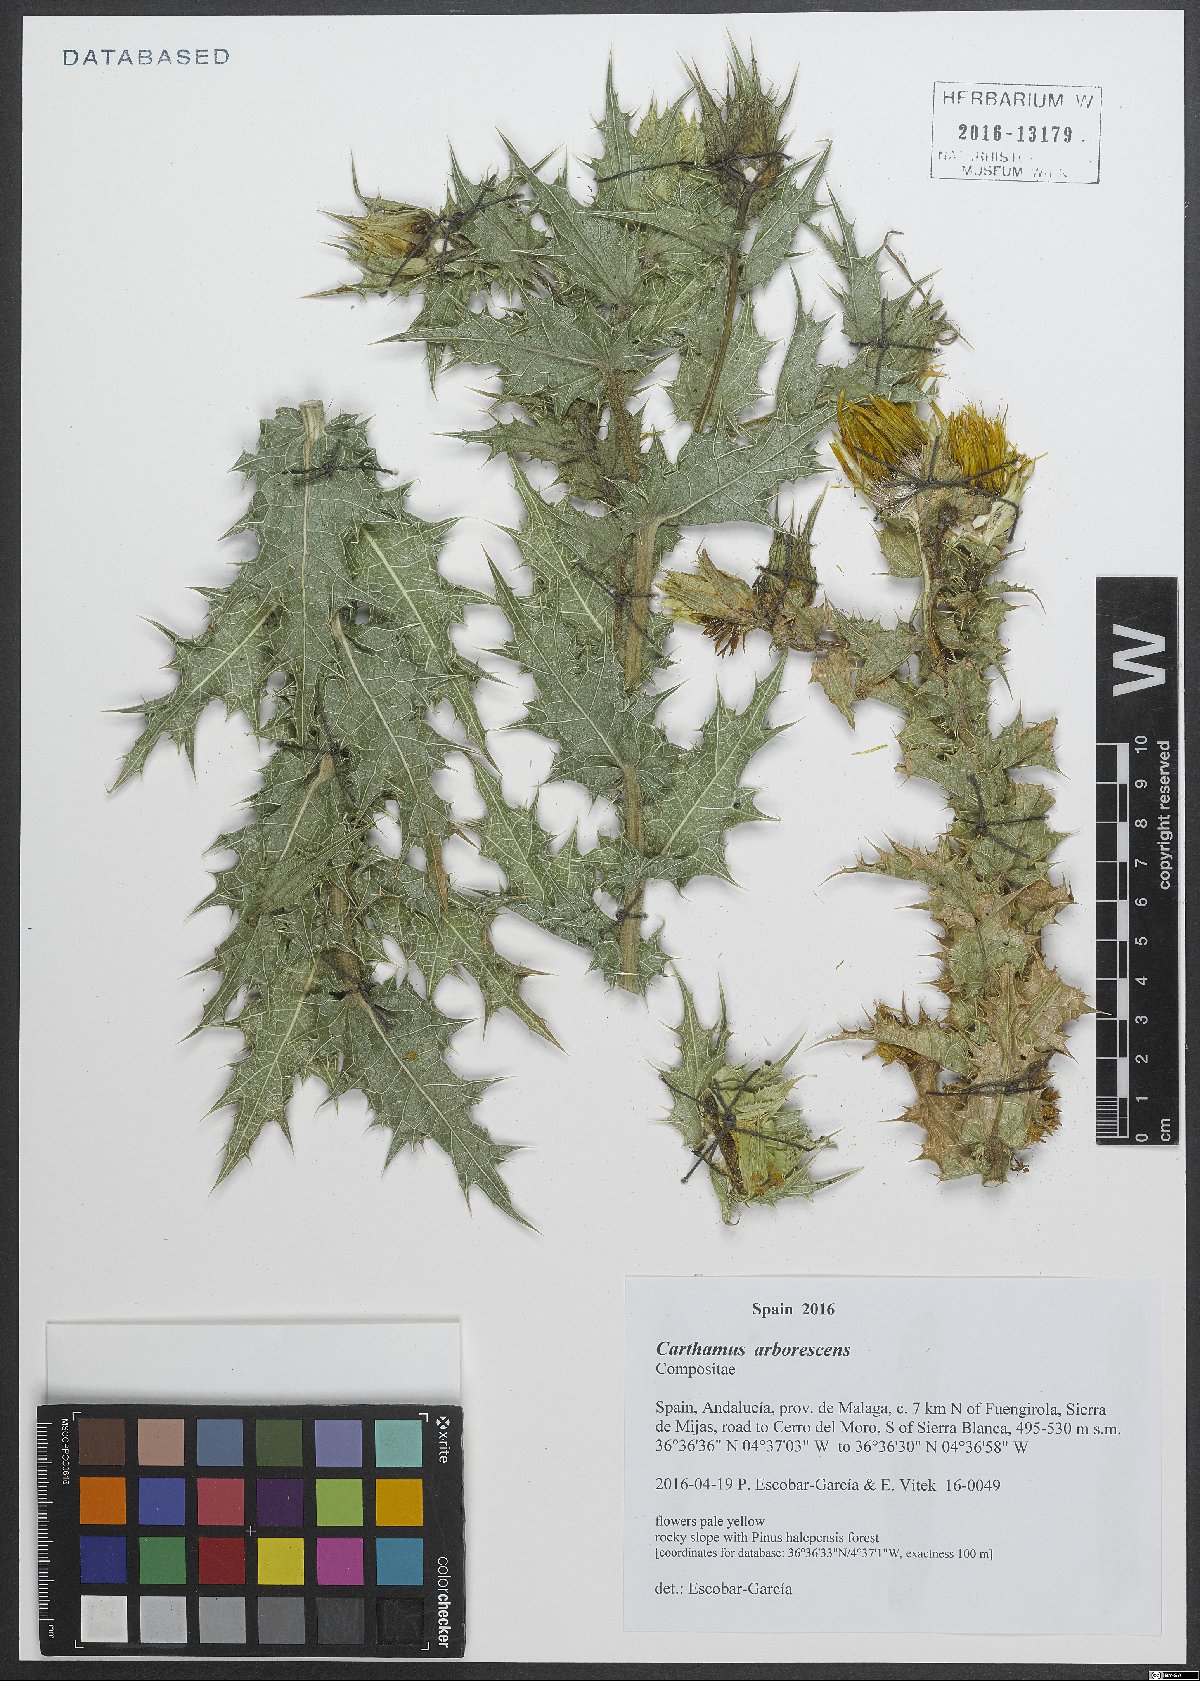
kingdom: Plantae
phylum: Tracheophyta
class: Magnoliopsida
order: Asterales
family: Asteraceae
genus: Phonus
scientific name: Phonus arborescens
